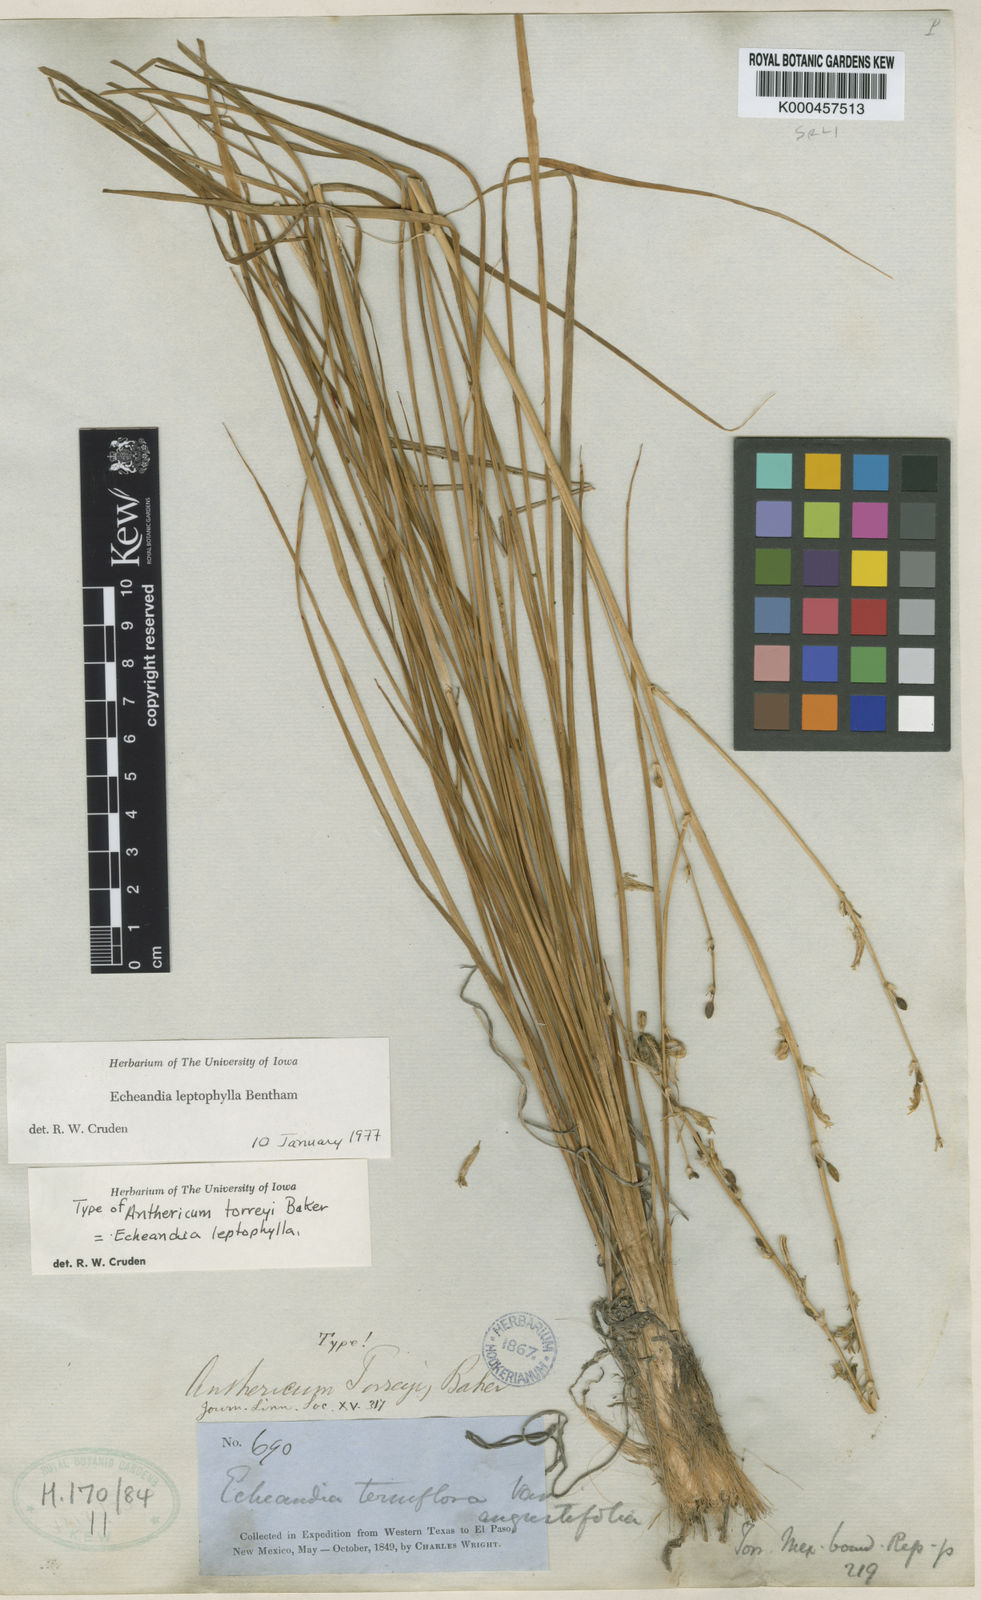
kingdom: Plantae
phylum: Tracheophyta
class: Liliopsida
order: Asparagales
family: Asparagaceae
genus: Echeandia
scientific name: Echeandia flavescens
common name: Amberlily
